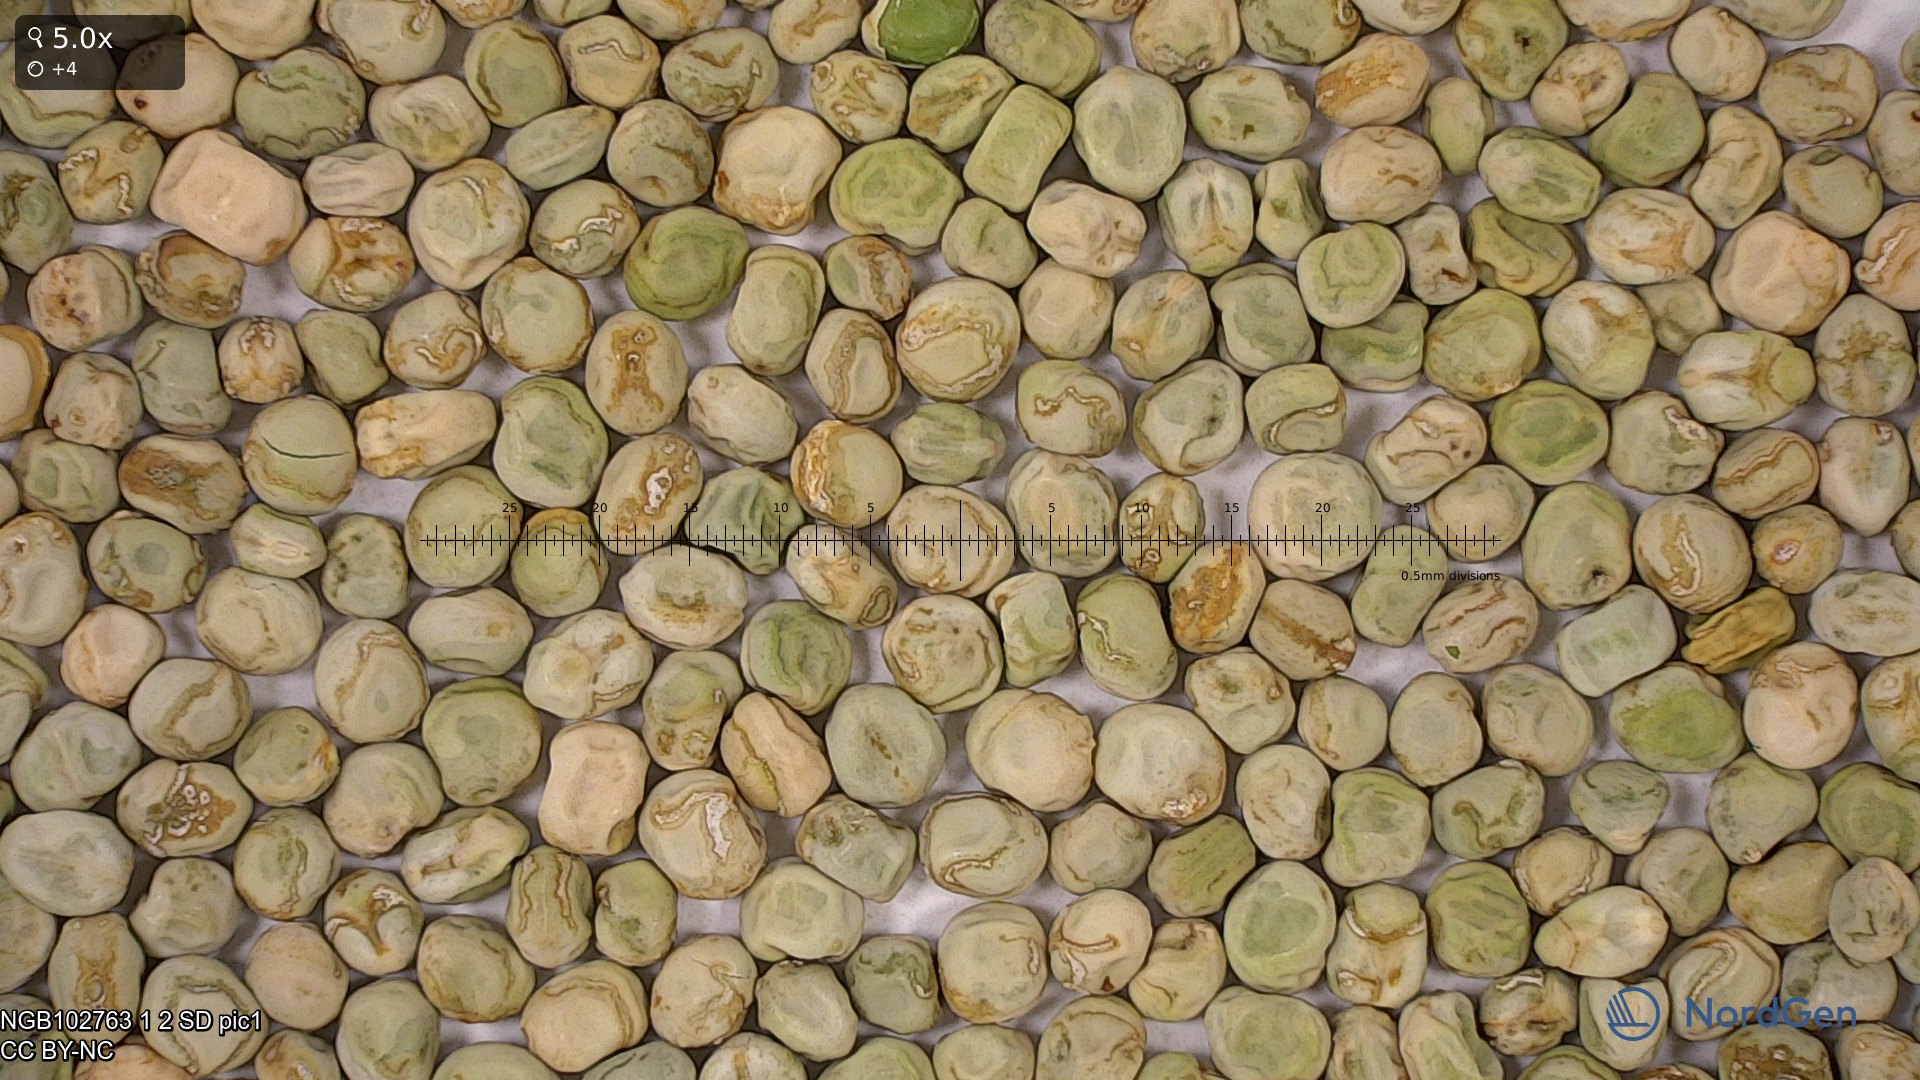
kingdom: Plantae
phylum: Tracheophyta
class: Magnoliopsida
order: Fabales
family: Fabaceae
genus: Lathyrus
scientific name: Lathyrus oleraceus
